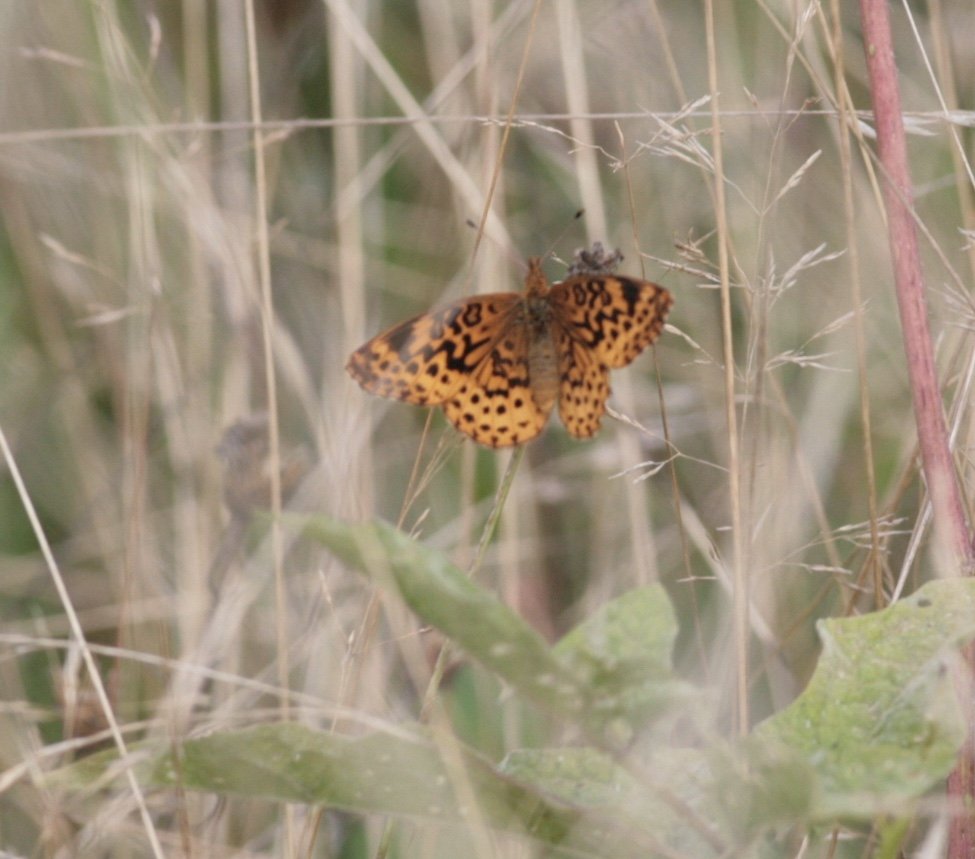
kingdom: Animalia
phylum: Arthropoda
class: Insecta
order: Lepidoptera
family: Nymphalidae
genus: Clossiana
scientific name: Clossiana toddi
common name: Meadow Fritillary
